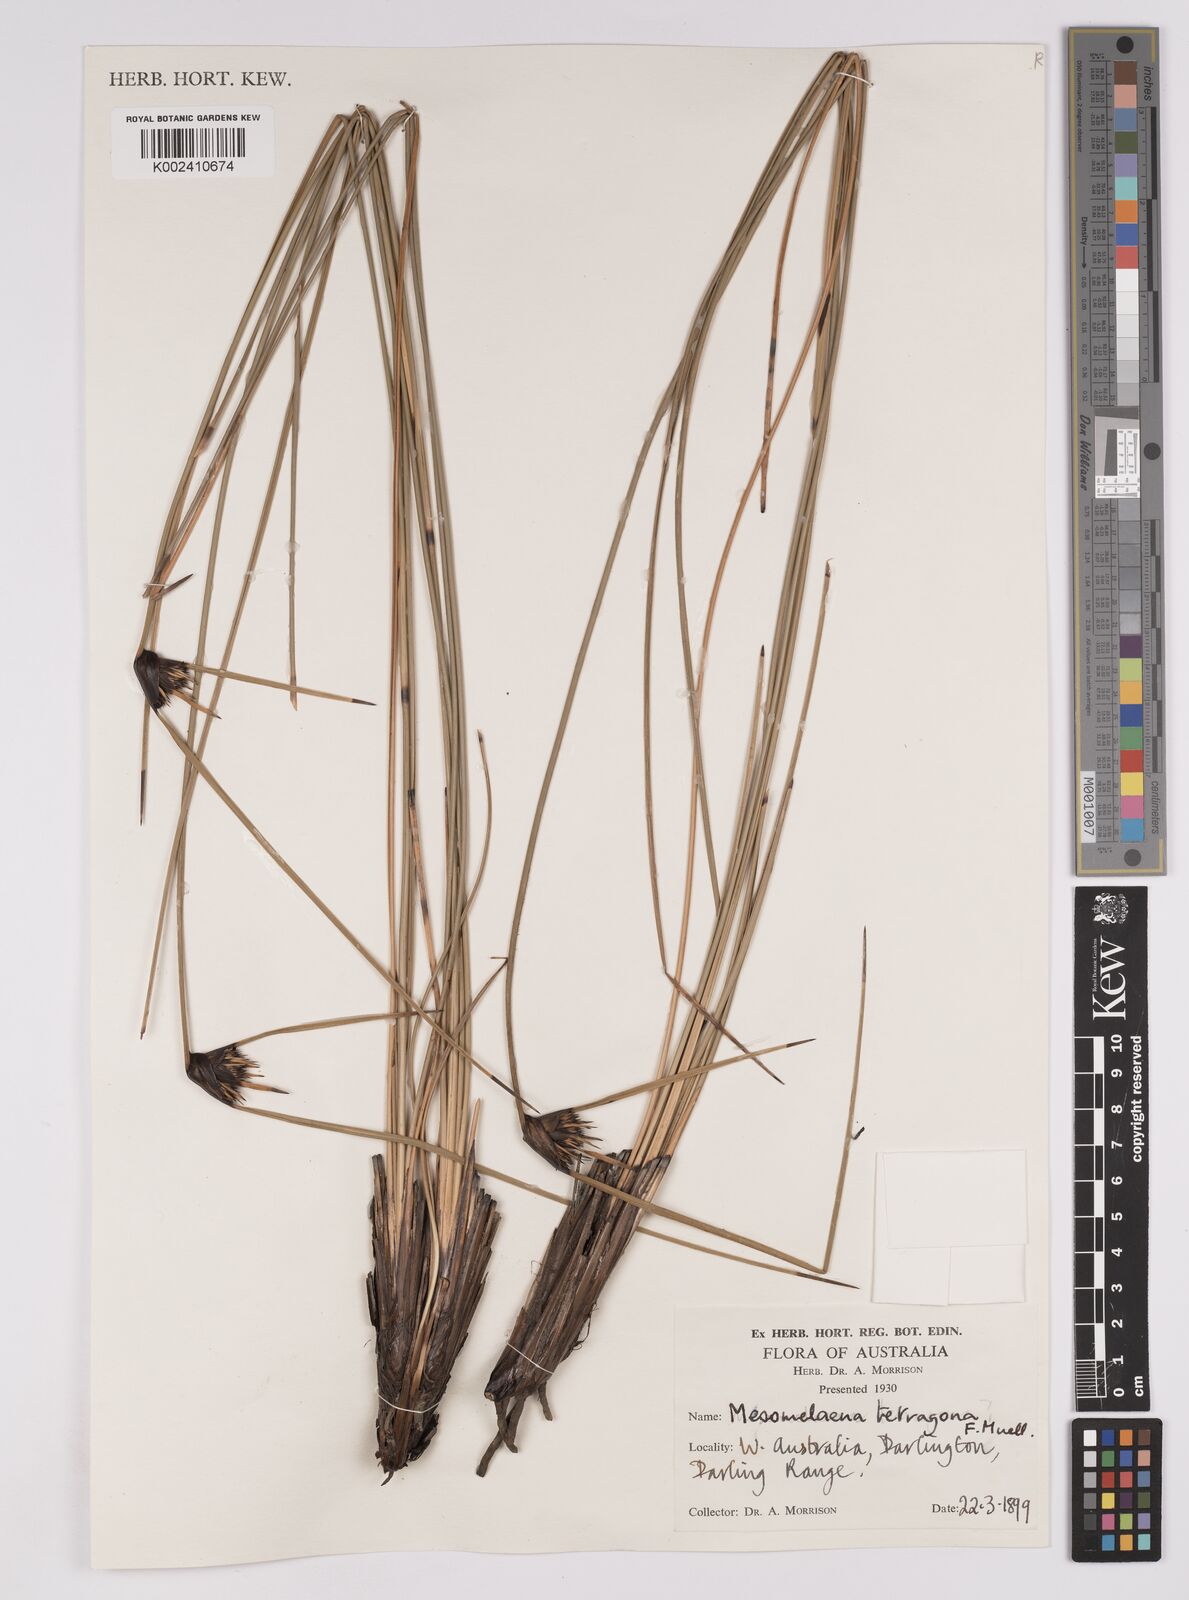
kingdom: Plantae
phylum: Tracheophyta
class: Liliopsida
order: Poales
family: Cyperaceae
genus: Mesomelaena
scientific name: Mesomelaena tetragona
